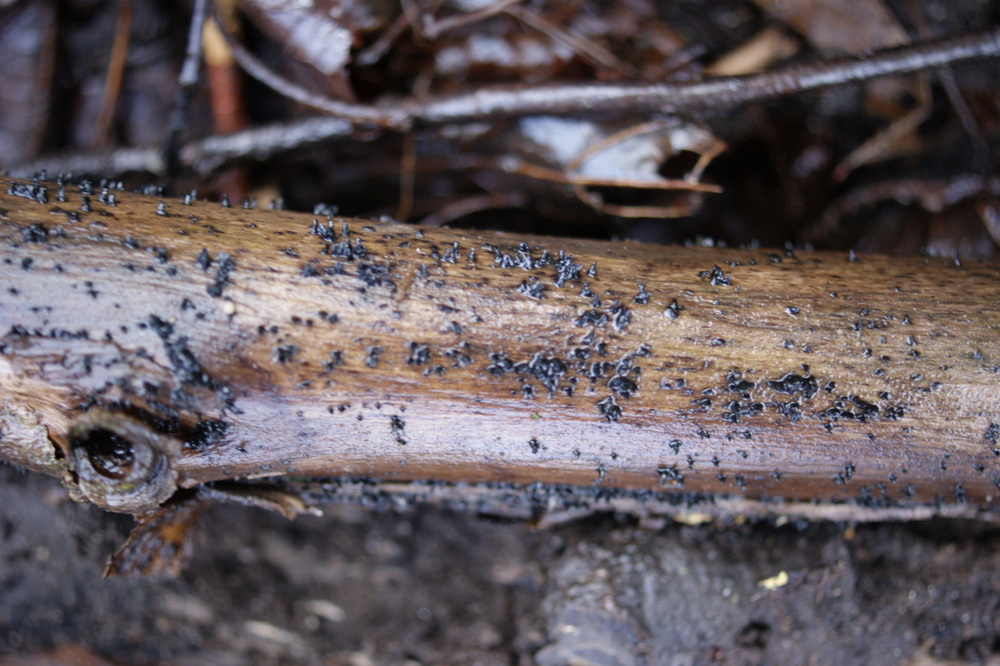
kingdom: Fungi
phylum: Ascomycota
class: Eurotiomycetes
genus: Glyphium
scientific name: Glyphium elatum
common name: kuløkse
